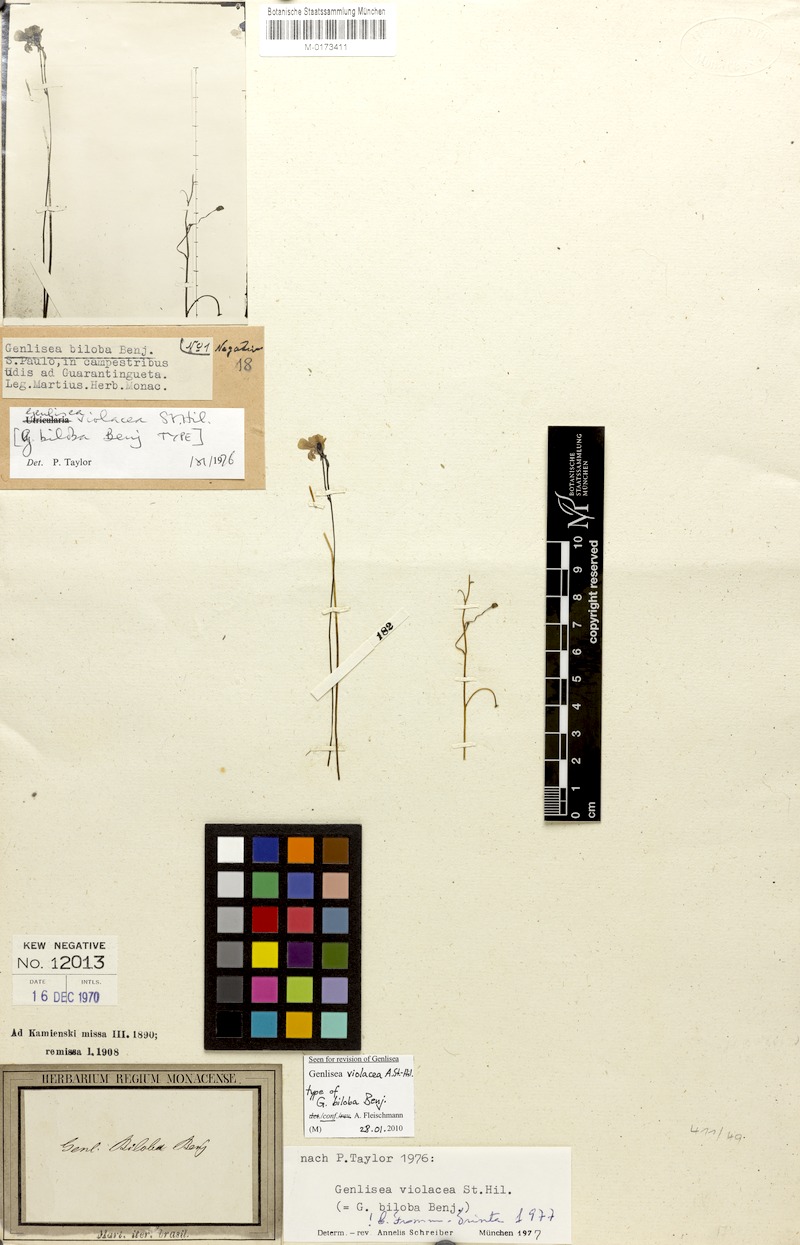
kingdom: Plantae
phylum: Tracheophyta
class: Magnoliopsida
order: Lamiales
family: Lentibulariaceae
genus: Genlisea
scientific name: Genlisea violacea
